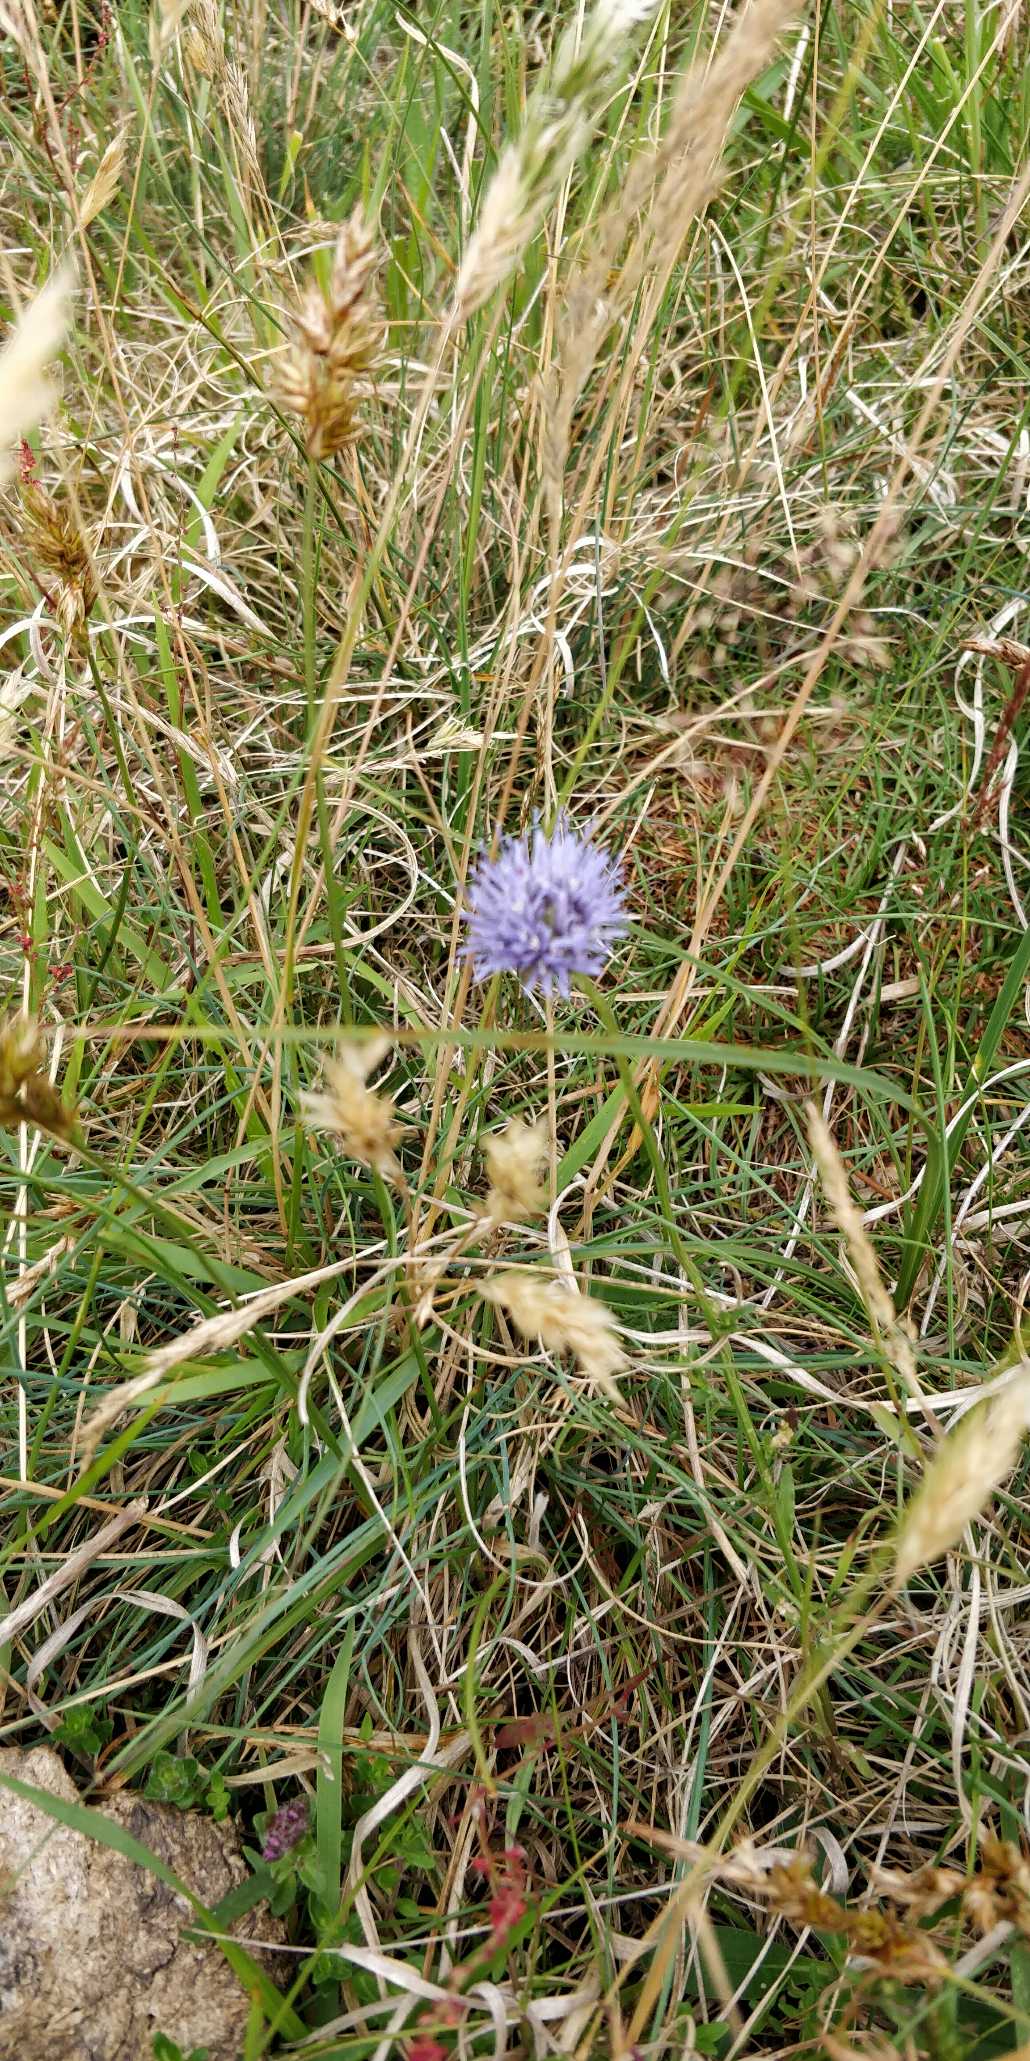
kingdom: Plantae
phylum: Tracheophyta
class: Magnoliopsida
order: Asterales
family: Campanulaceae
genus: Jasione
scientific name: Jasione montana
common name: Blåmunke
